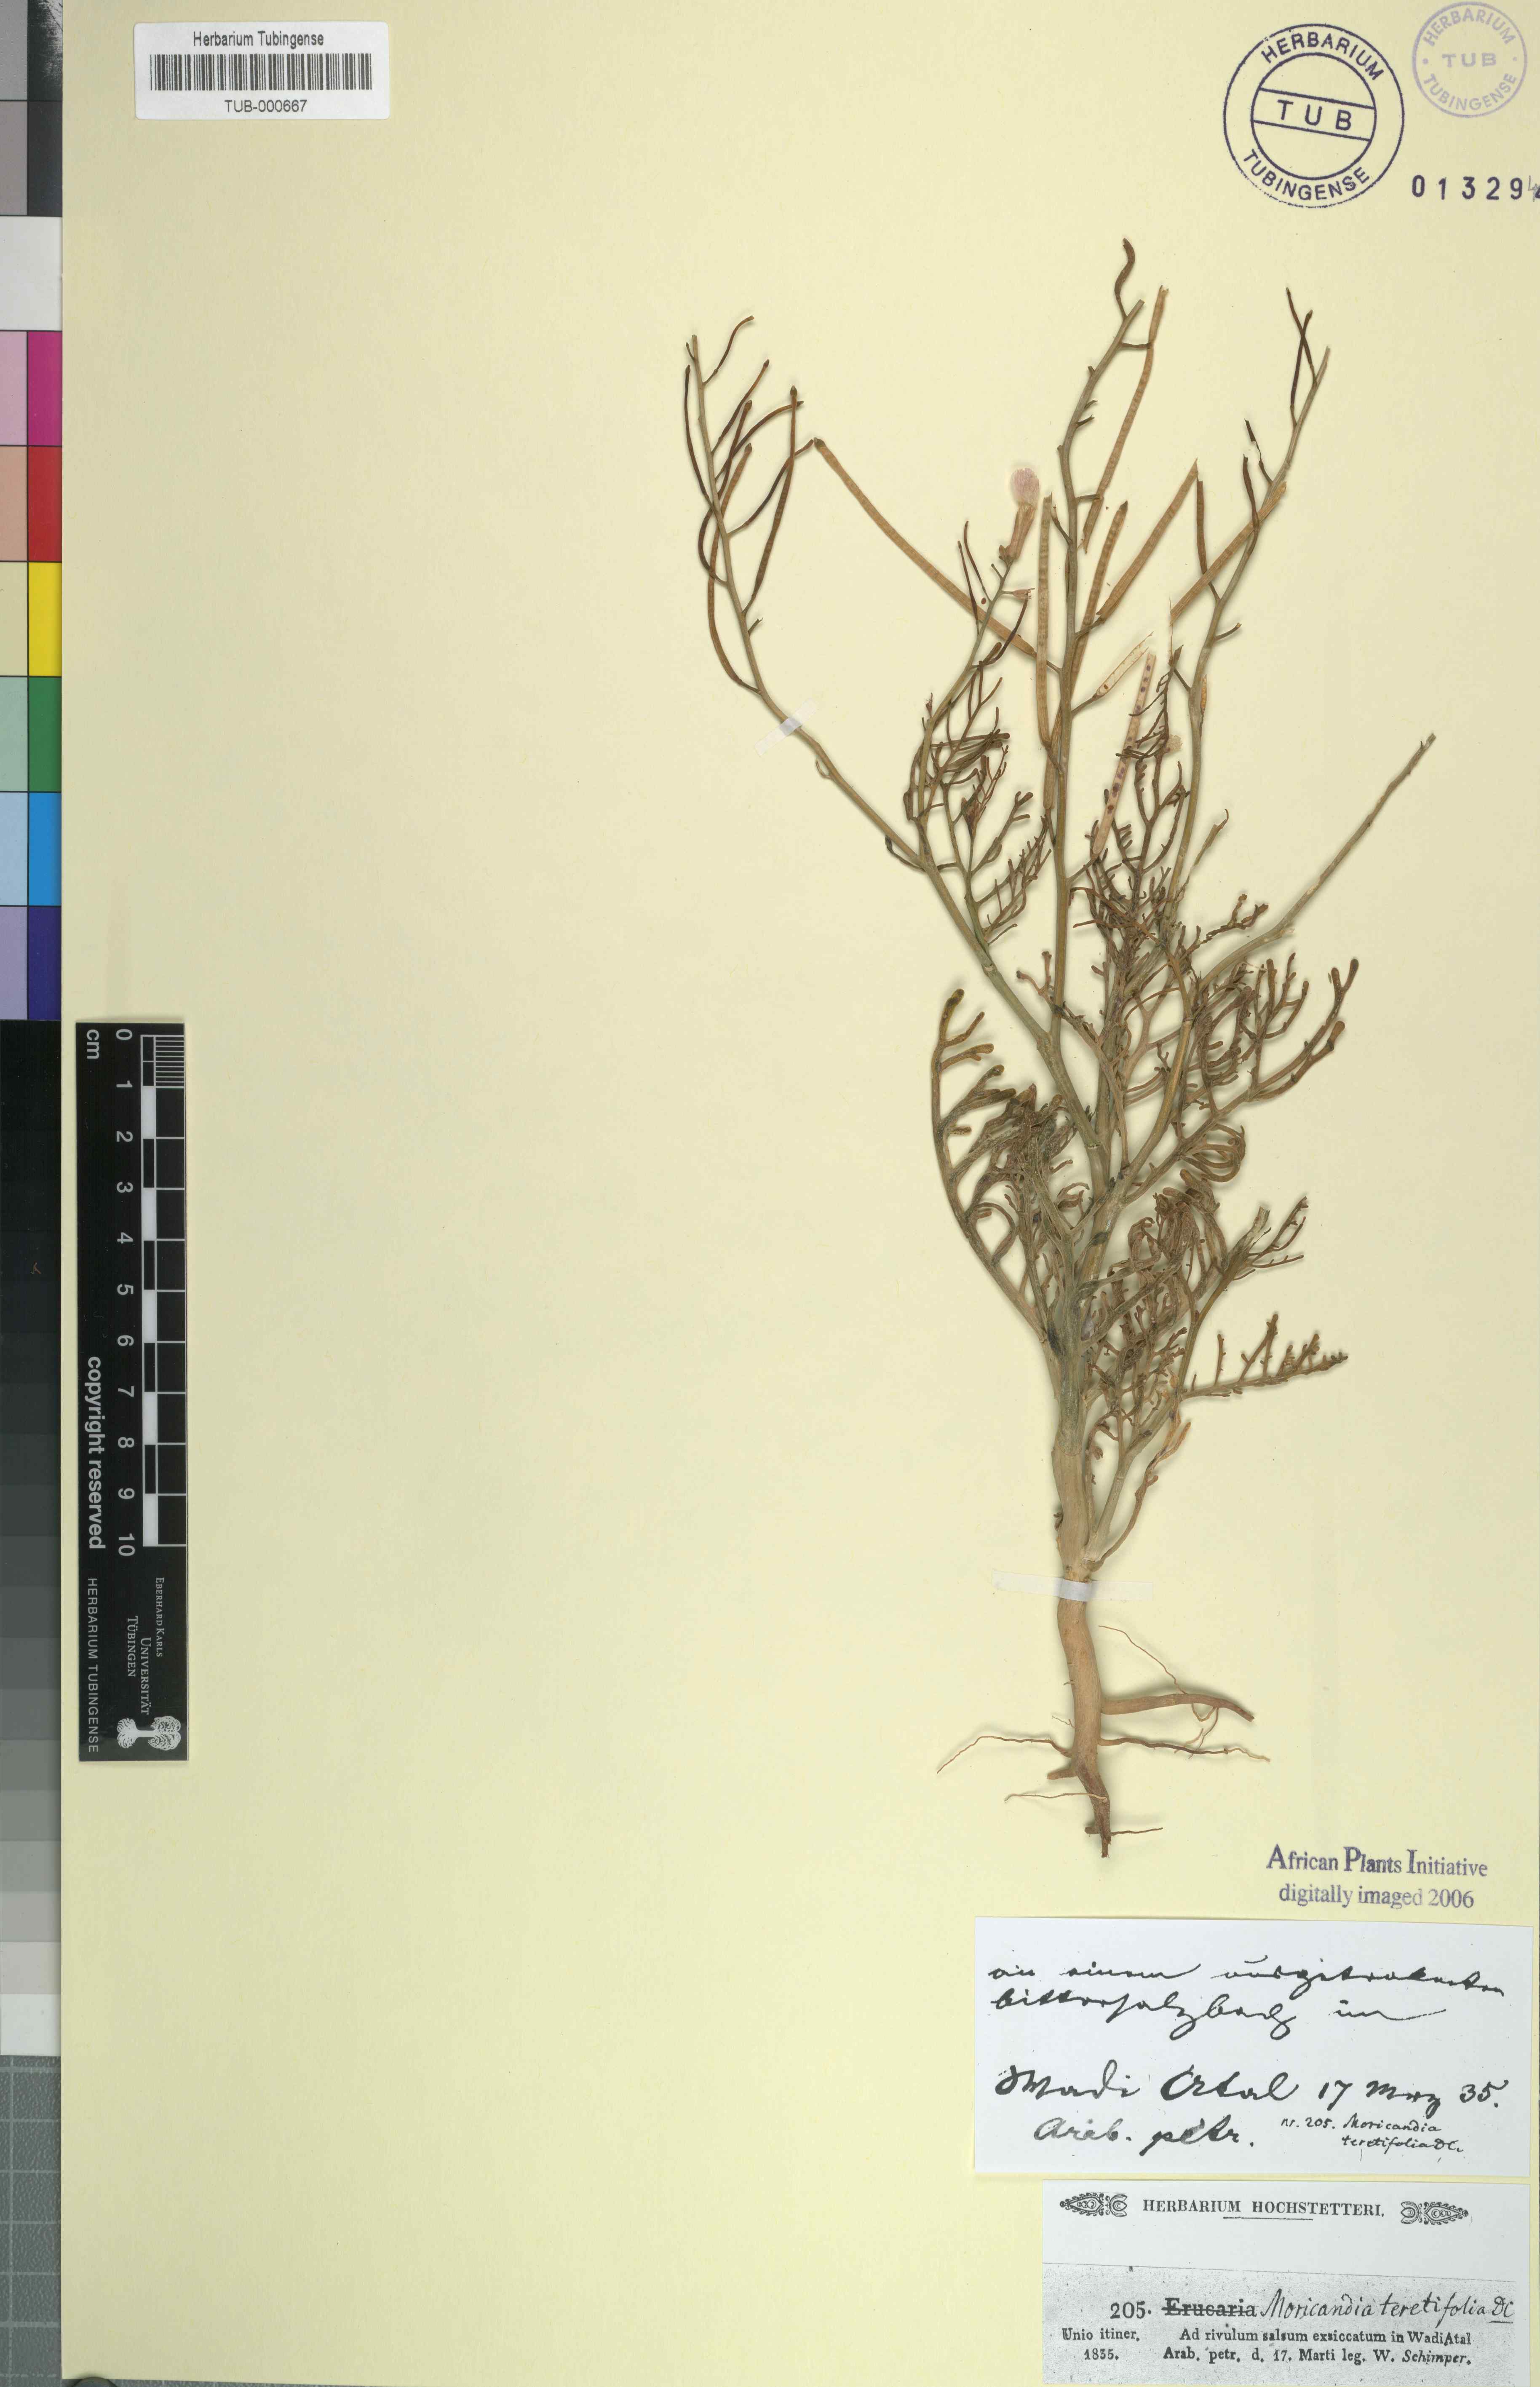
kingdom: Plantae
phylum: Tracheophyta
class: Magnoliopsida
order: Brassicales
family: Brassicaceae
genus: Pseuderucaria
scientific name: Pseuderucaria teretifolia
